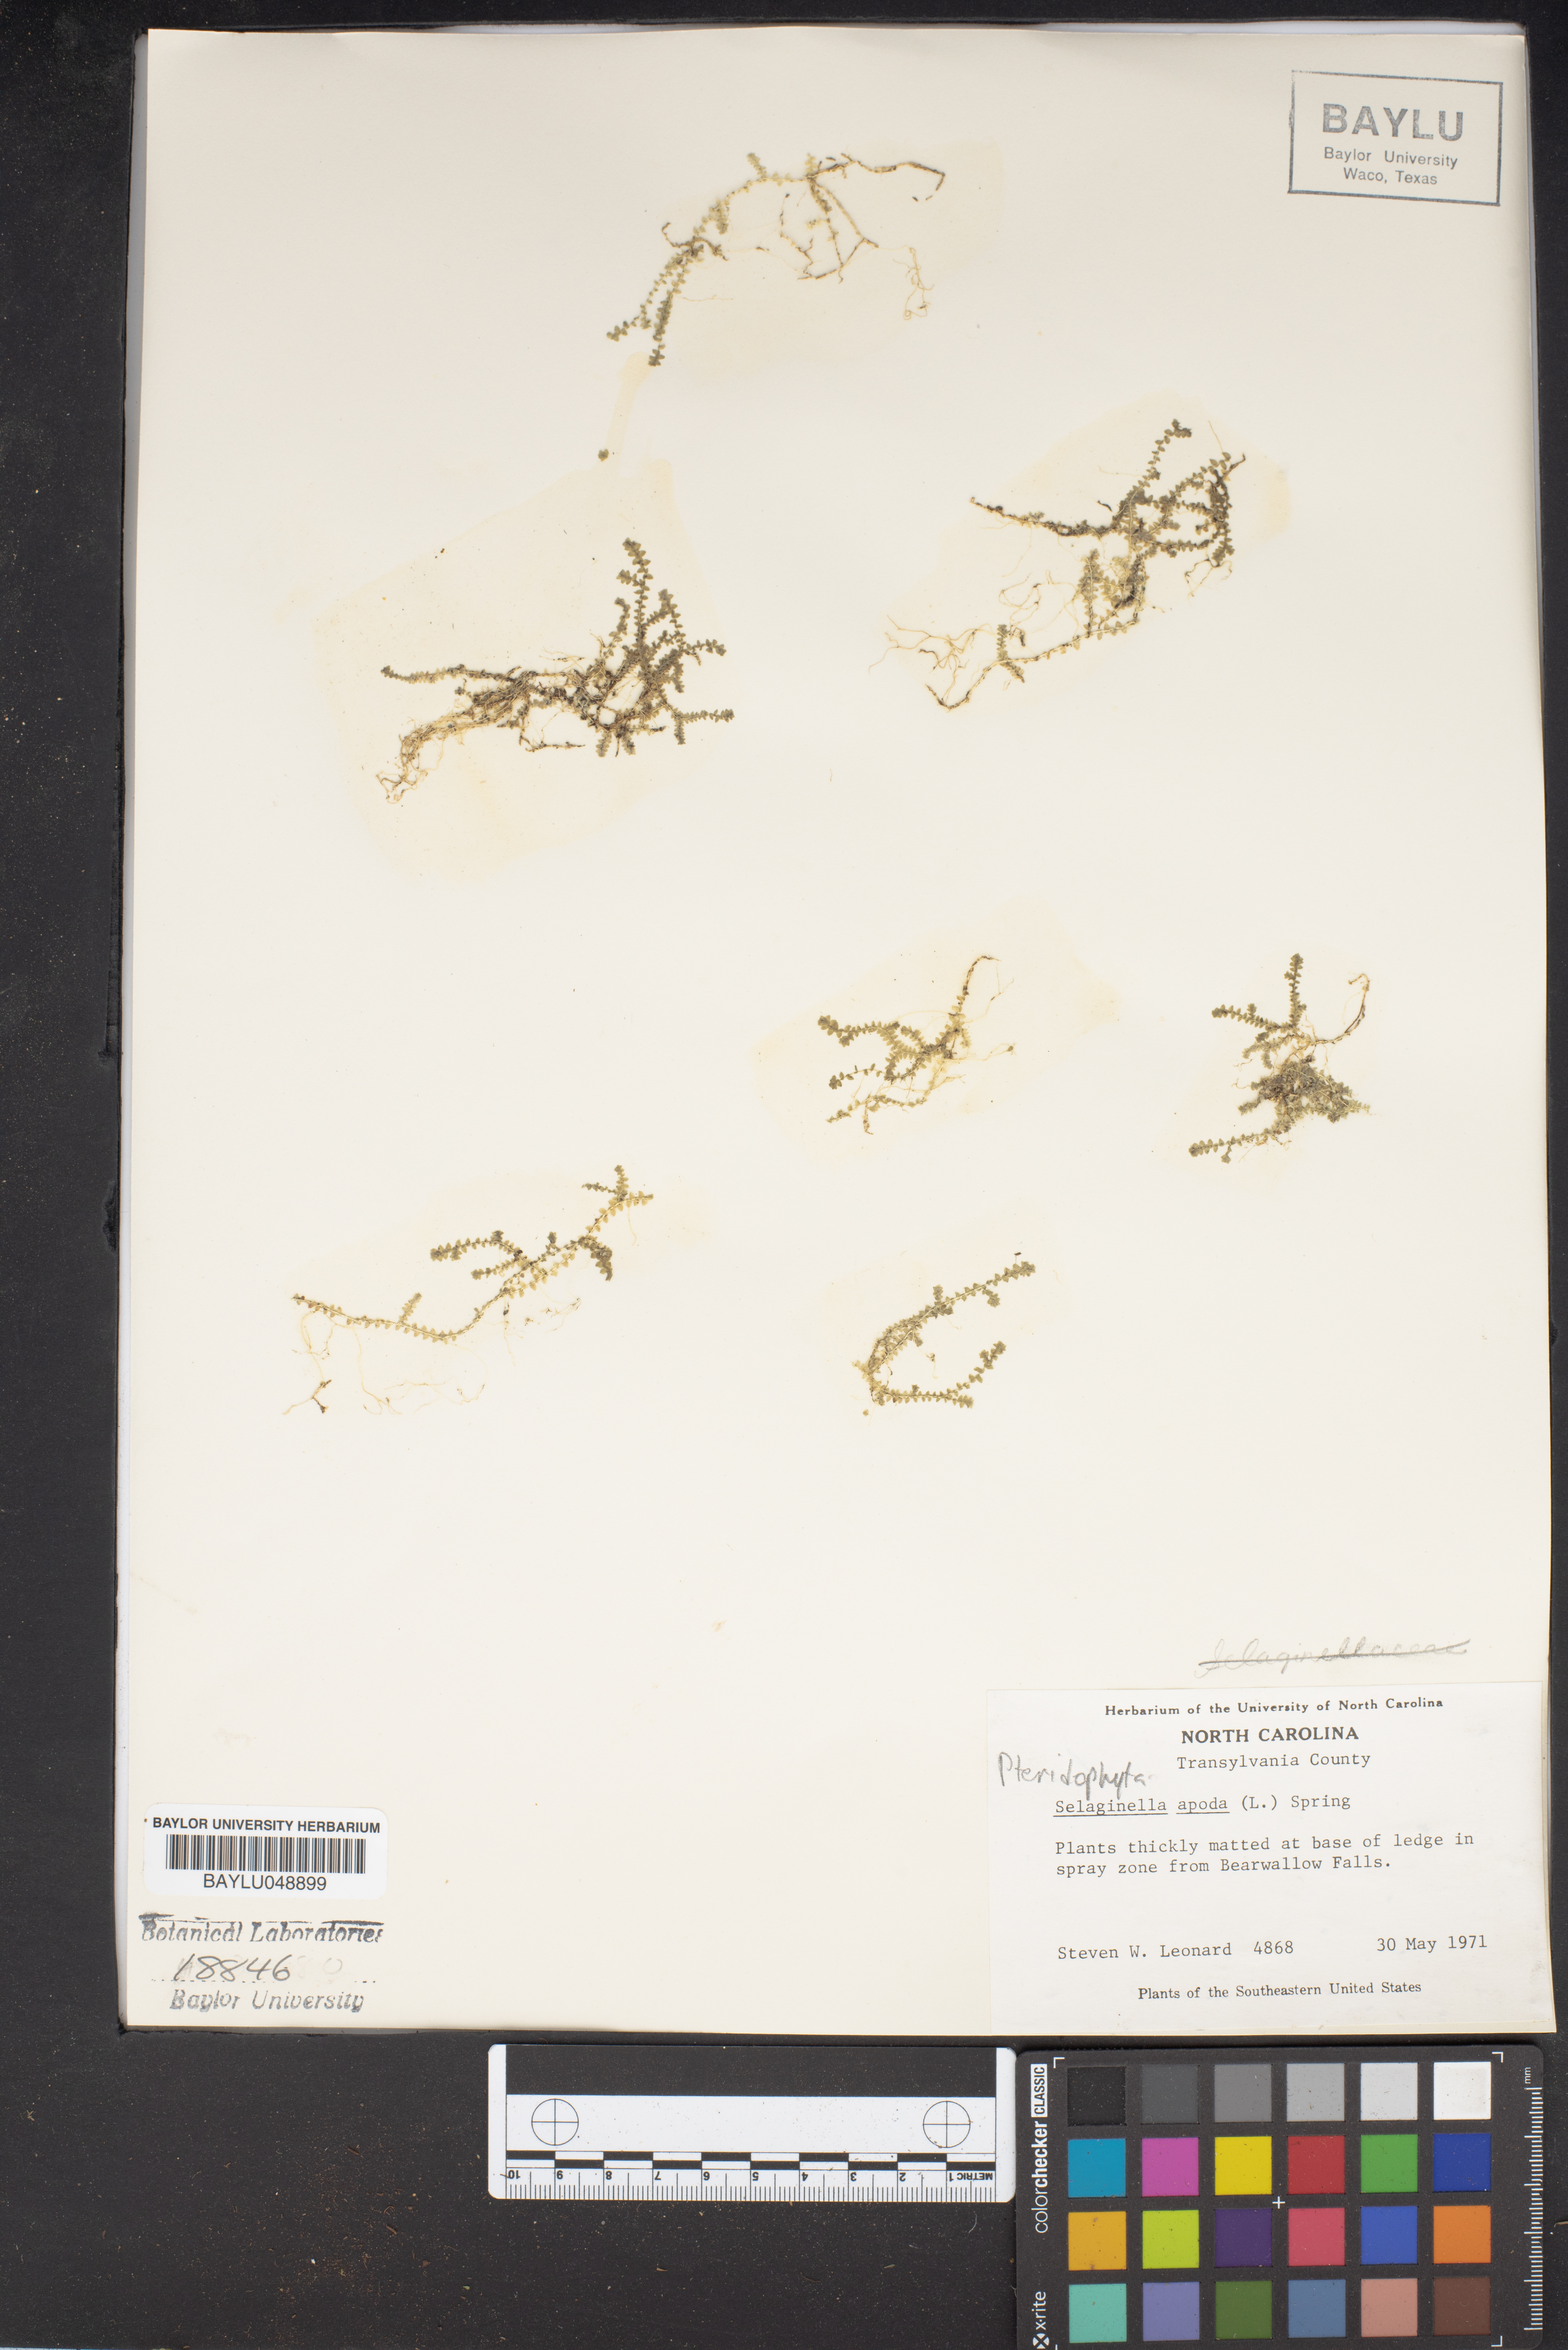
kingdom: Plantae
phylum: Tracheophyta
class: Lycopodiopsida
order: Selaginellales
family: Selaginellaceae
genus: Selaginella
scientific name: Selaginella apoda
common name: Creeping spikemoss
